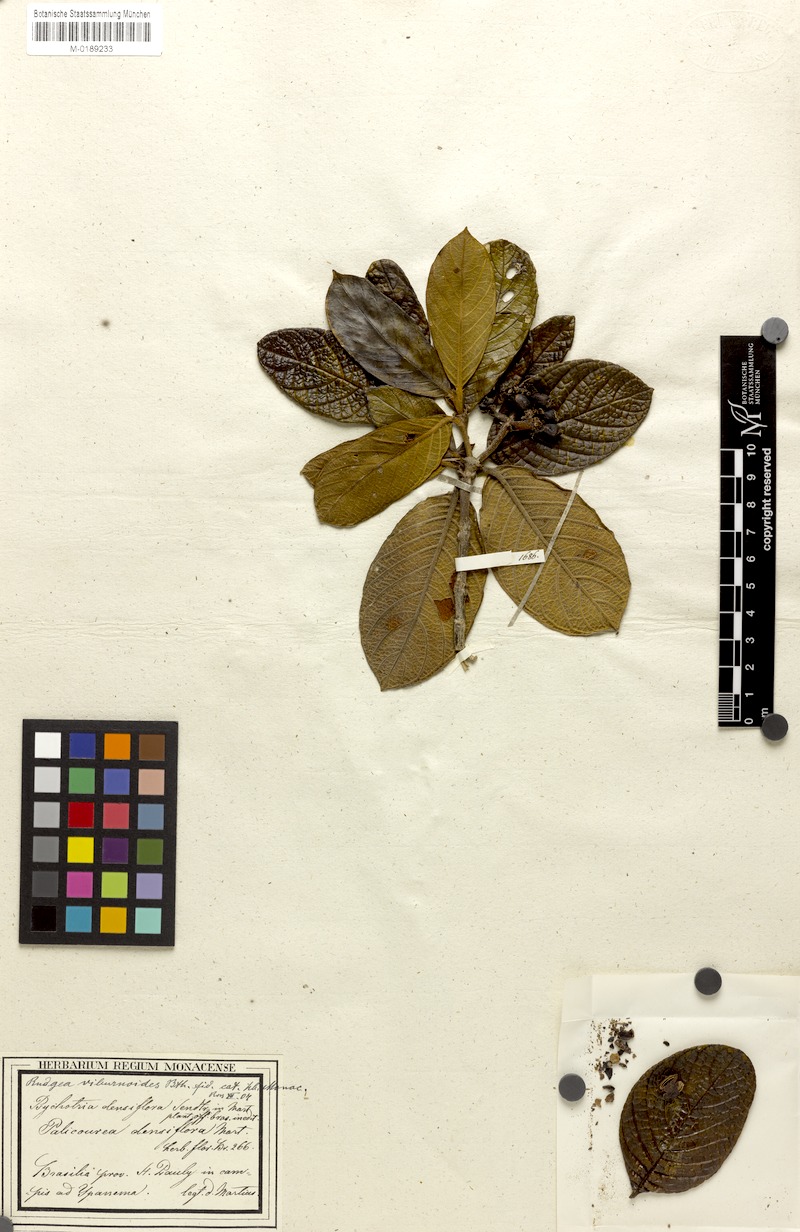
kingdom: Plantae
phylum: Tracheophyta
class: Magnoliopsida
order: Gentianales
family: Rubiaceae
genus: Rudgea
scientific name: Rudgea viburnoides
